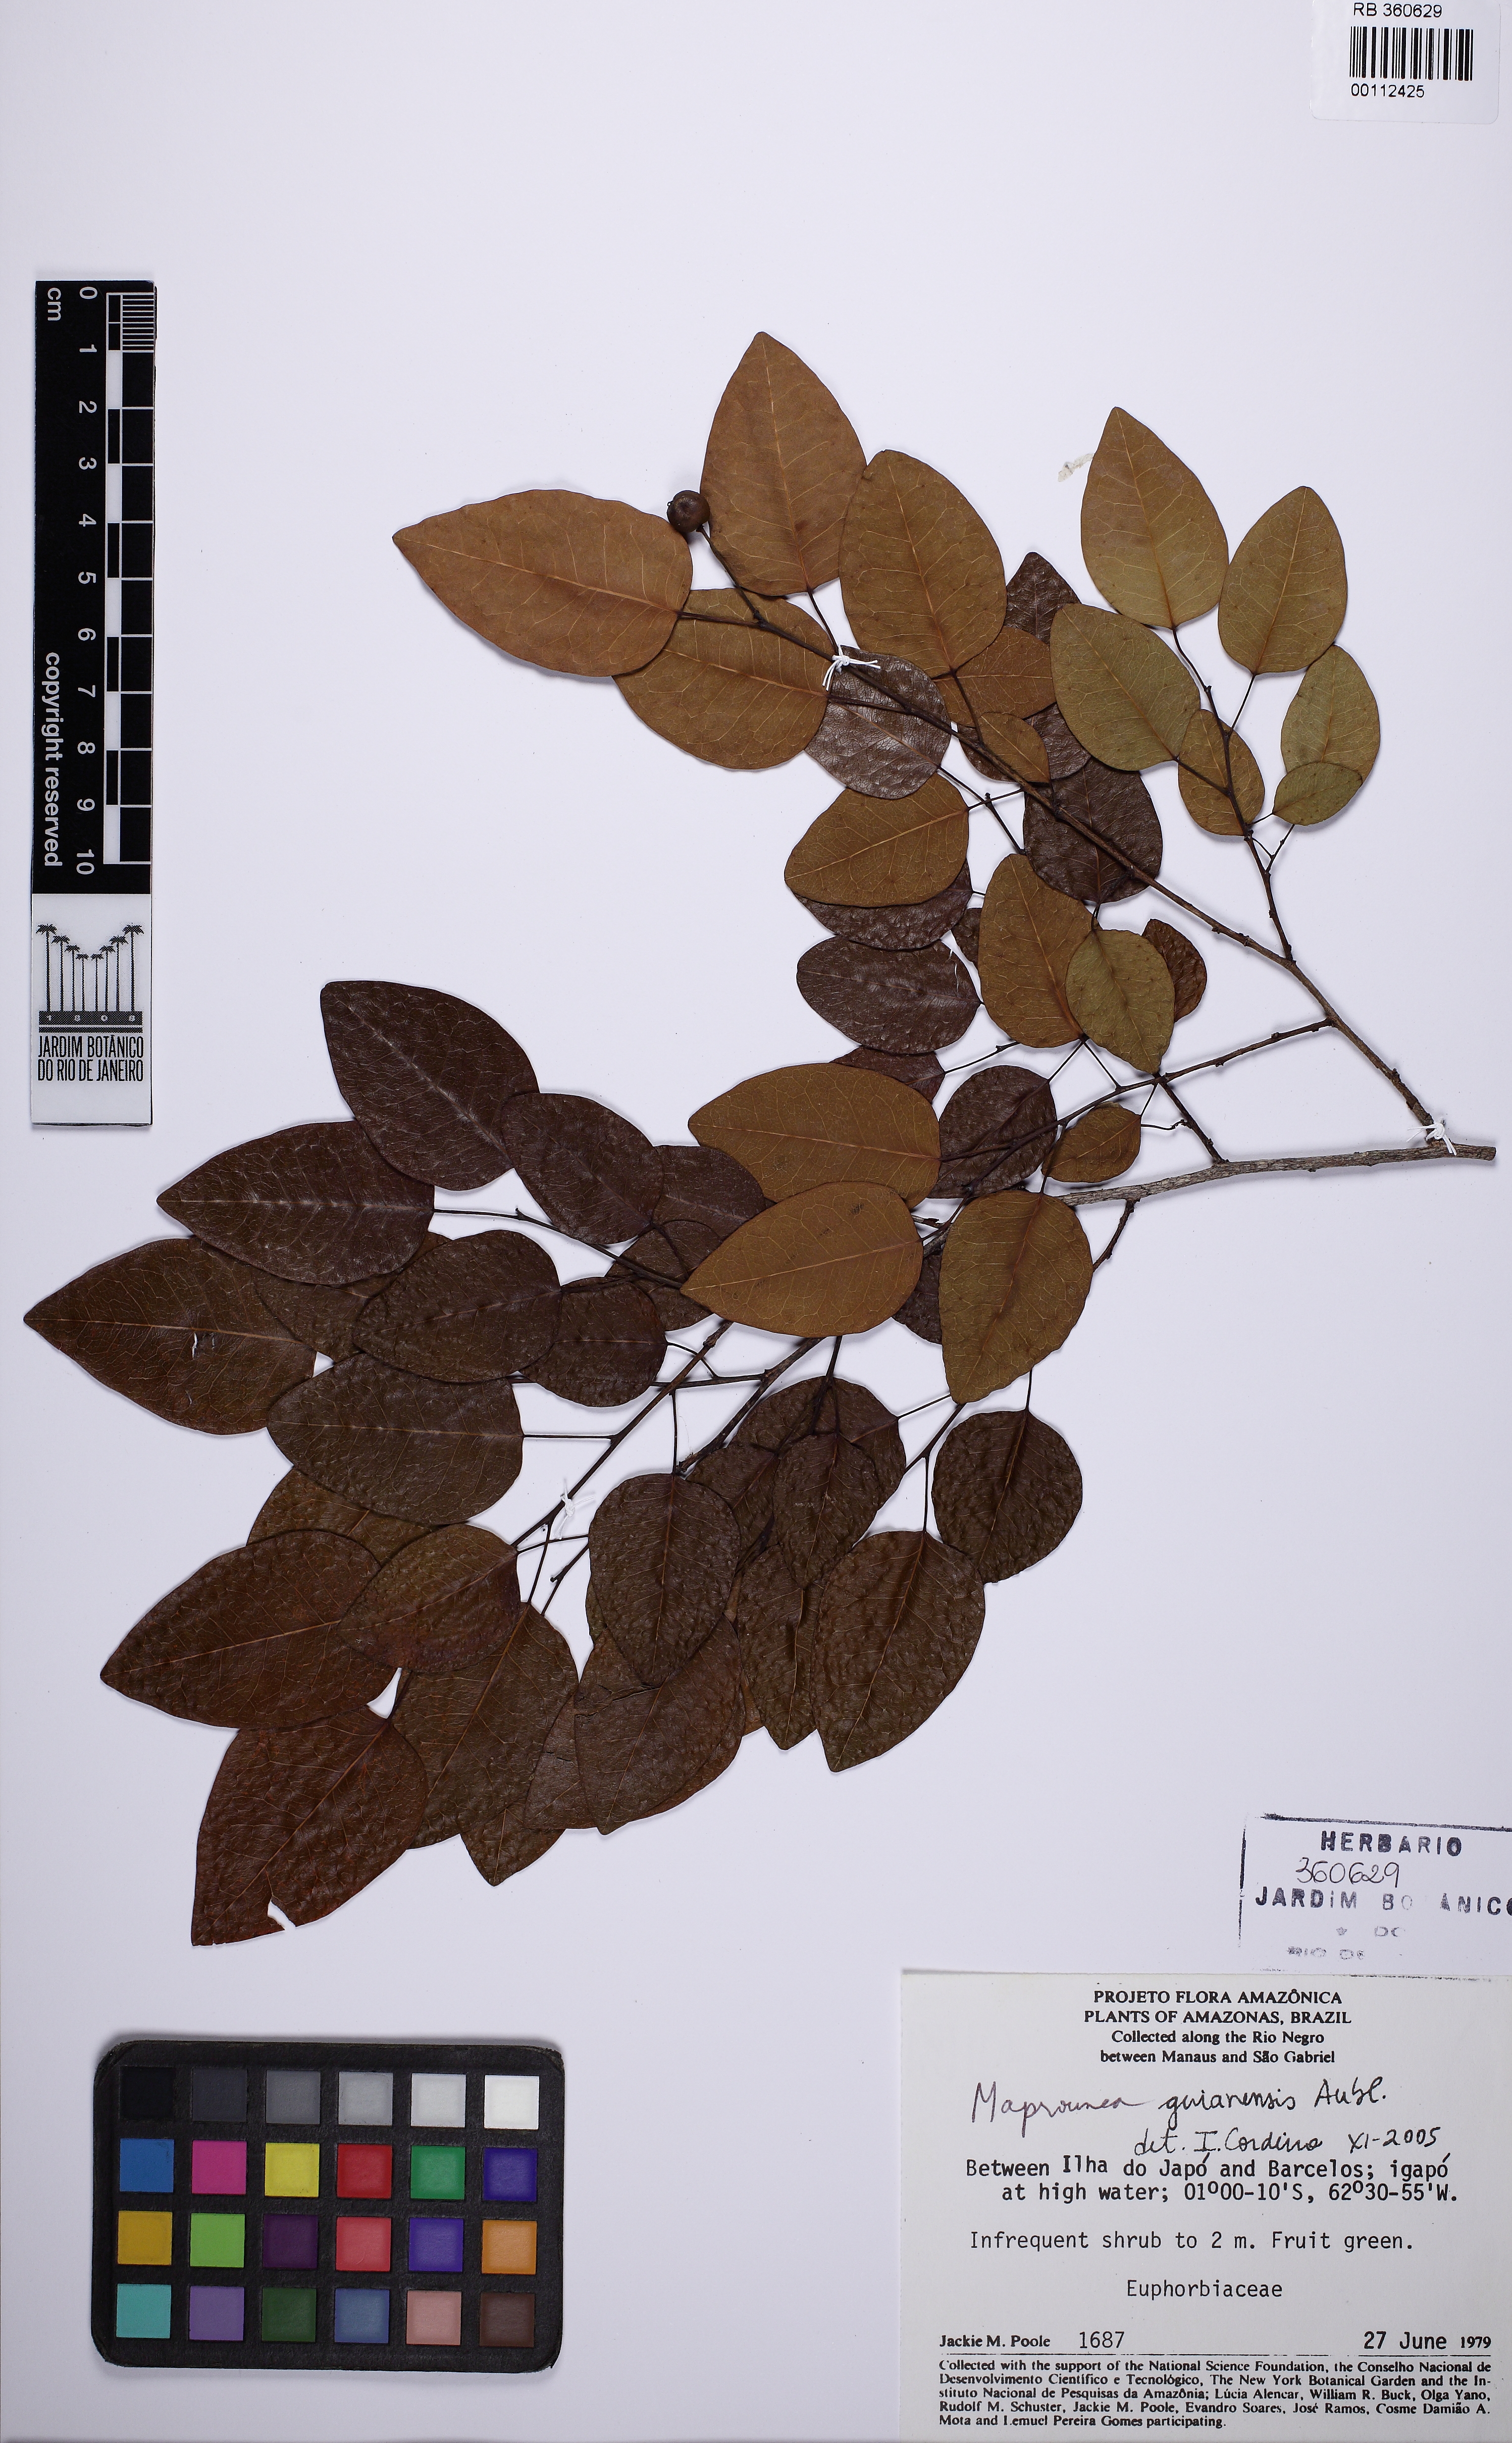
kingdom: Plantae
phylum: Tracheophyta
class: Magnoliopsida
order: Malpighiales
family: Euphorbiaceae
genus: Maprounea
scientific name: Maprounea africana
